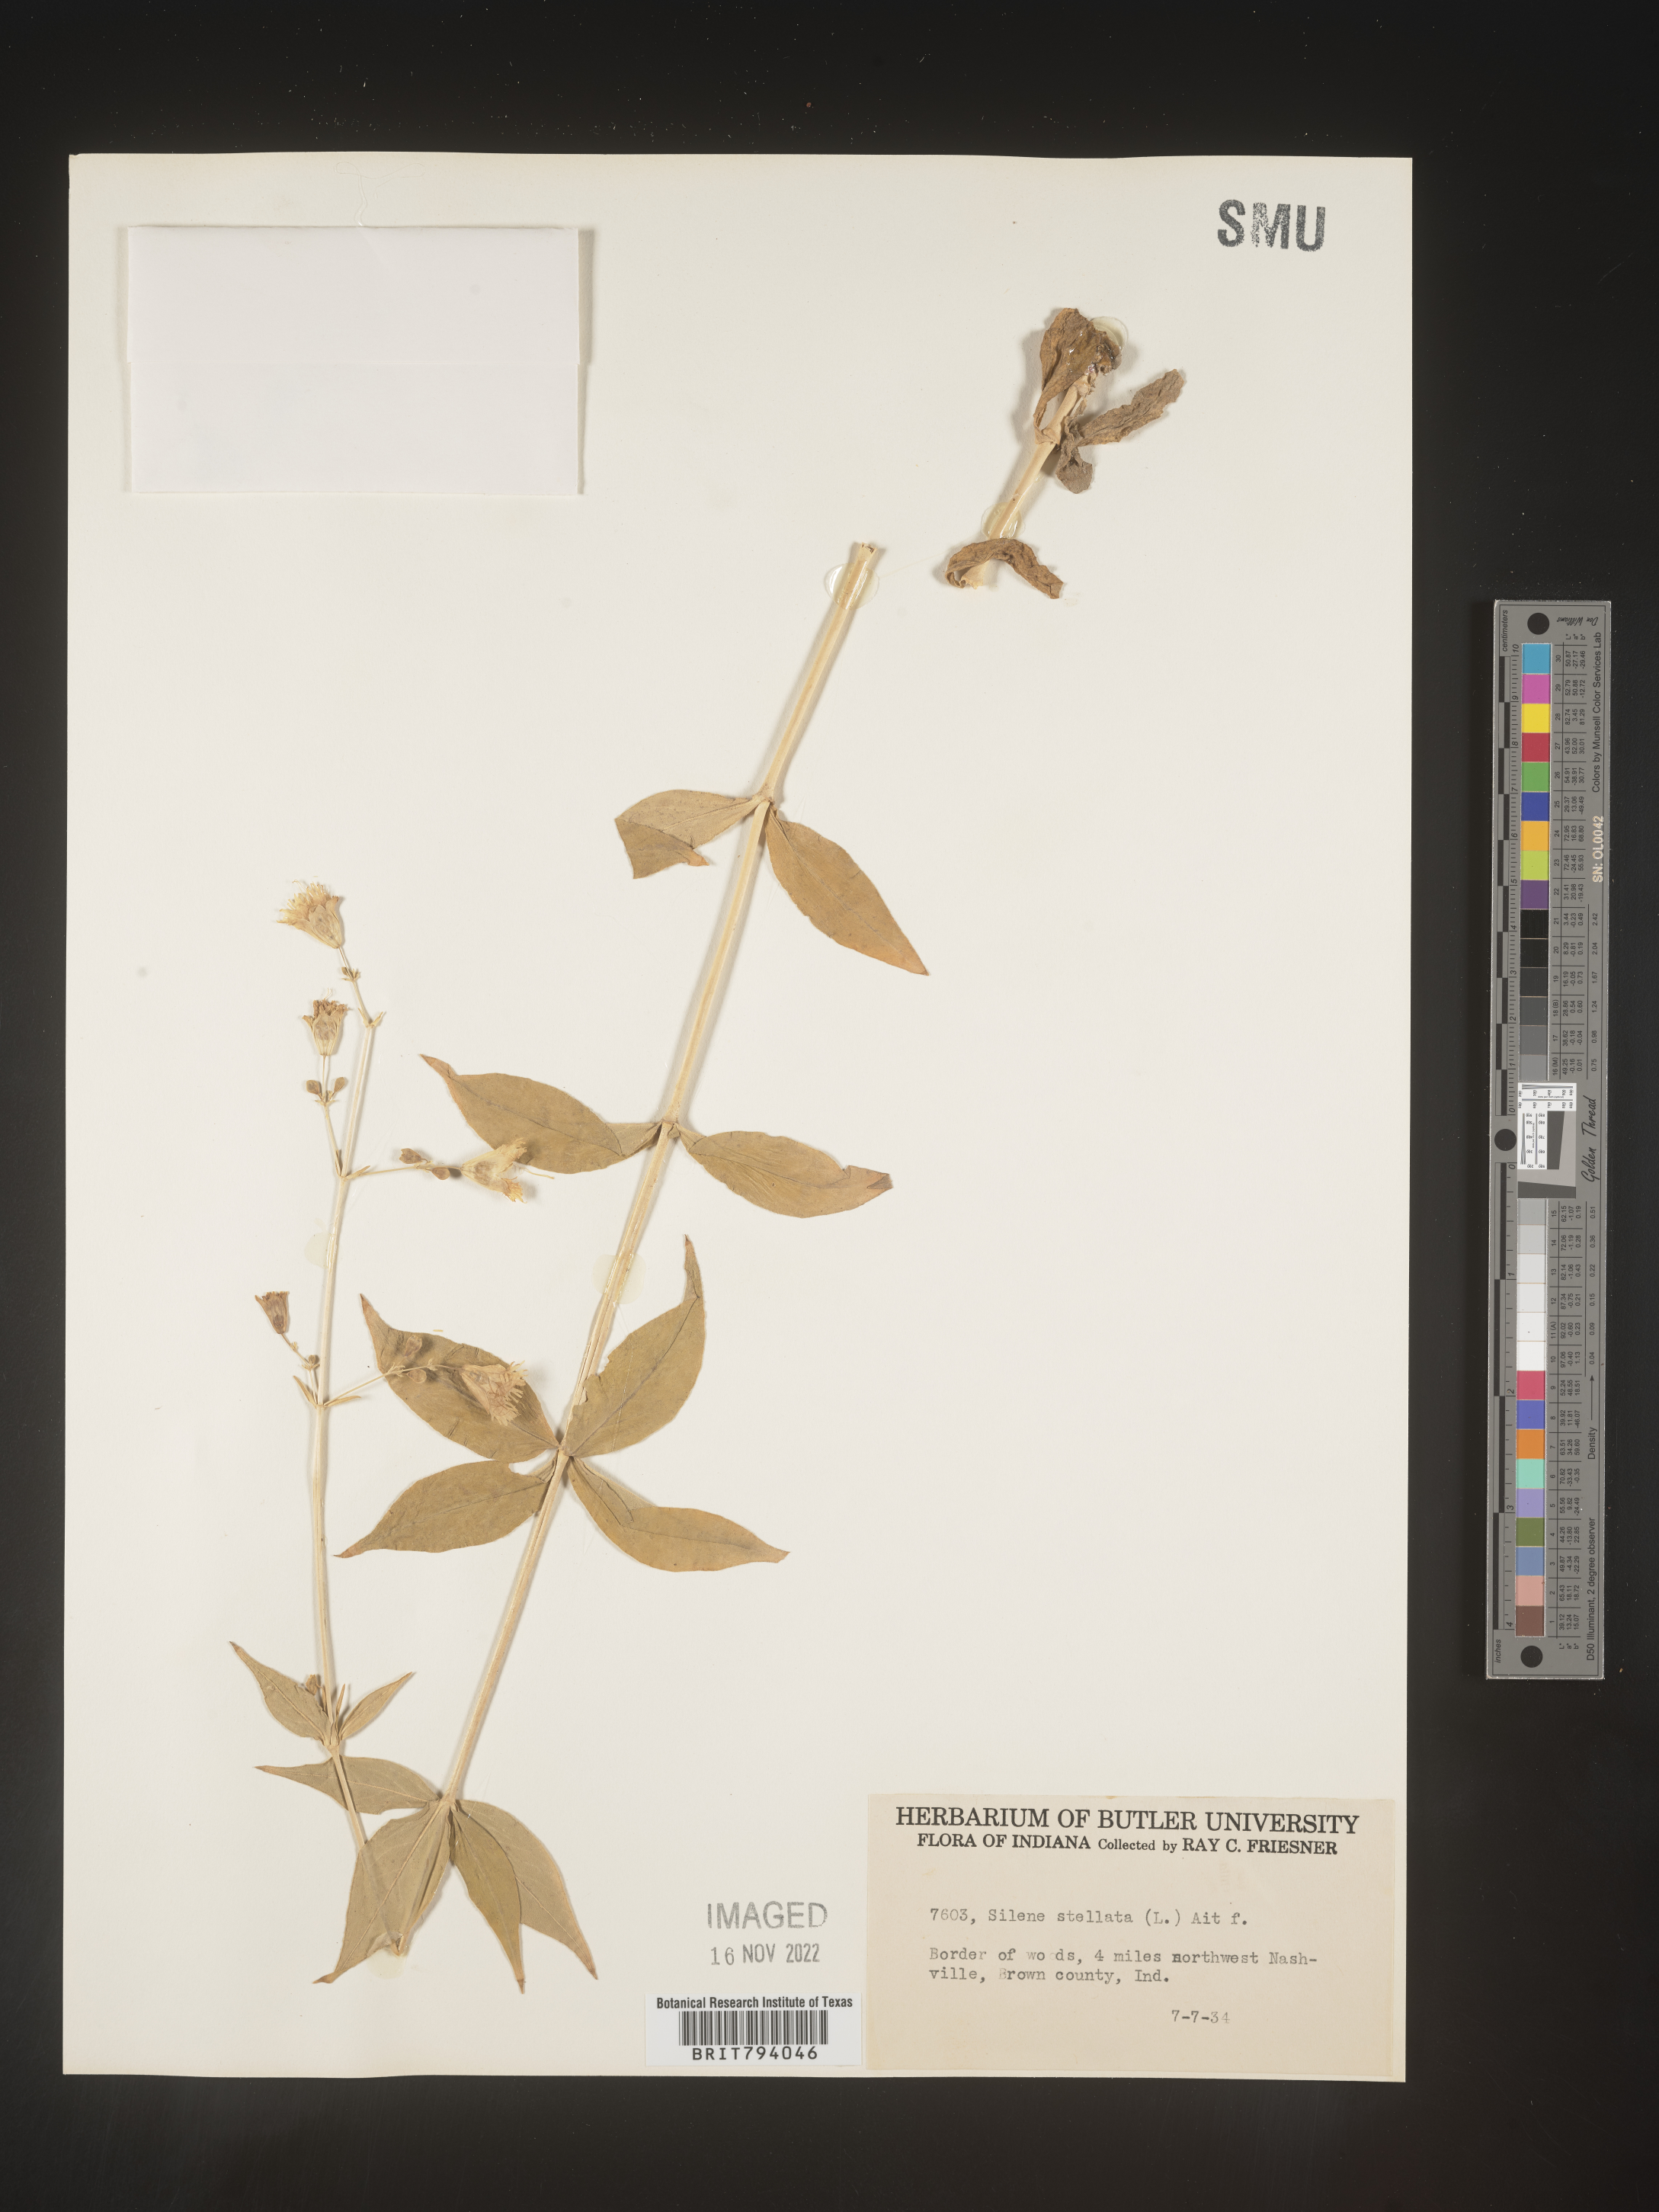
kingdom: Plantae
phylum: Tracheophyta
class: Magnoliopsida
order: Caryophyllales
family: Caryophyllaceae
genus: Silene
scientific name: Silene stellata
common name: Starry campion
